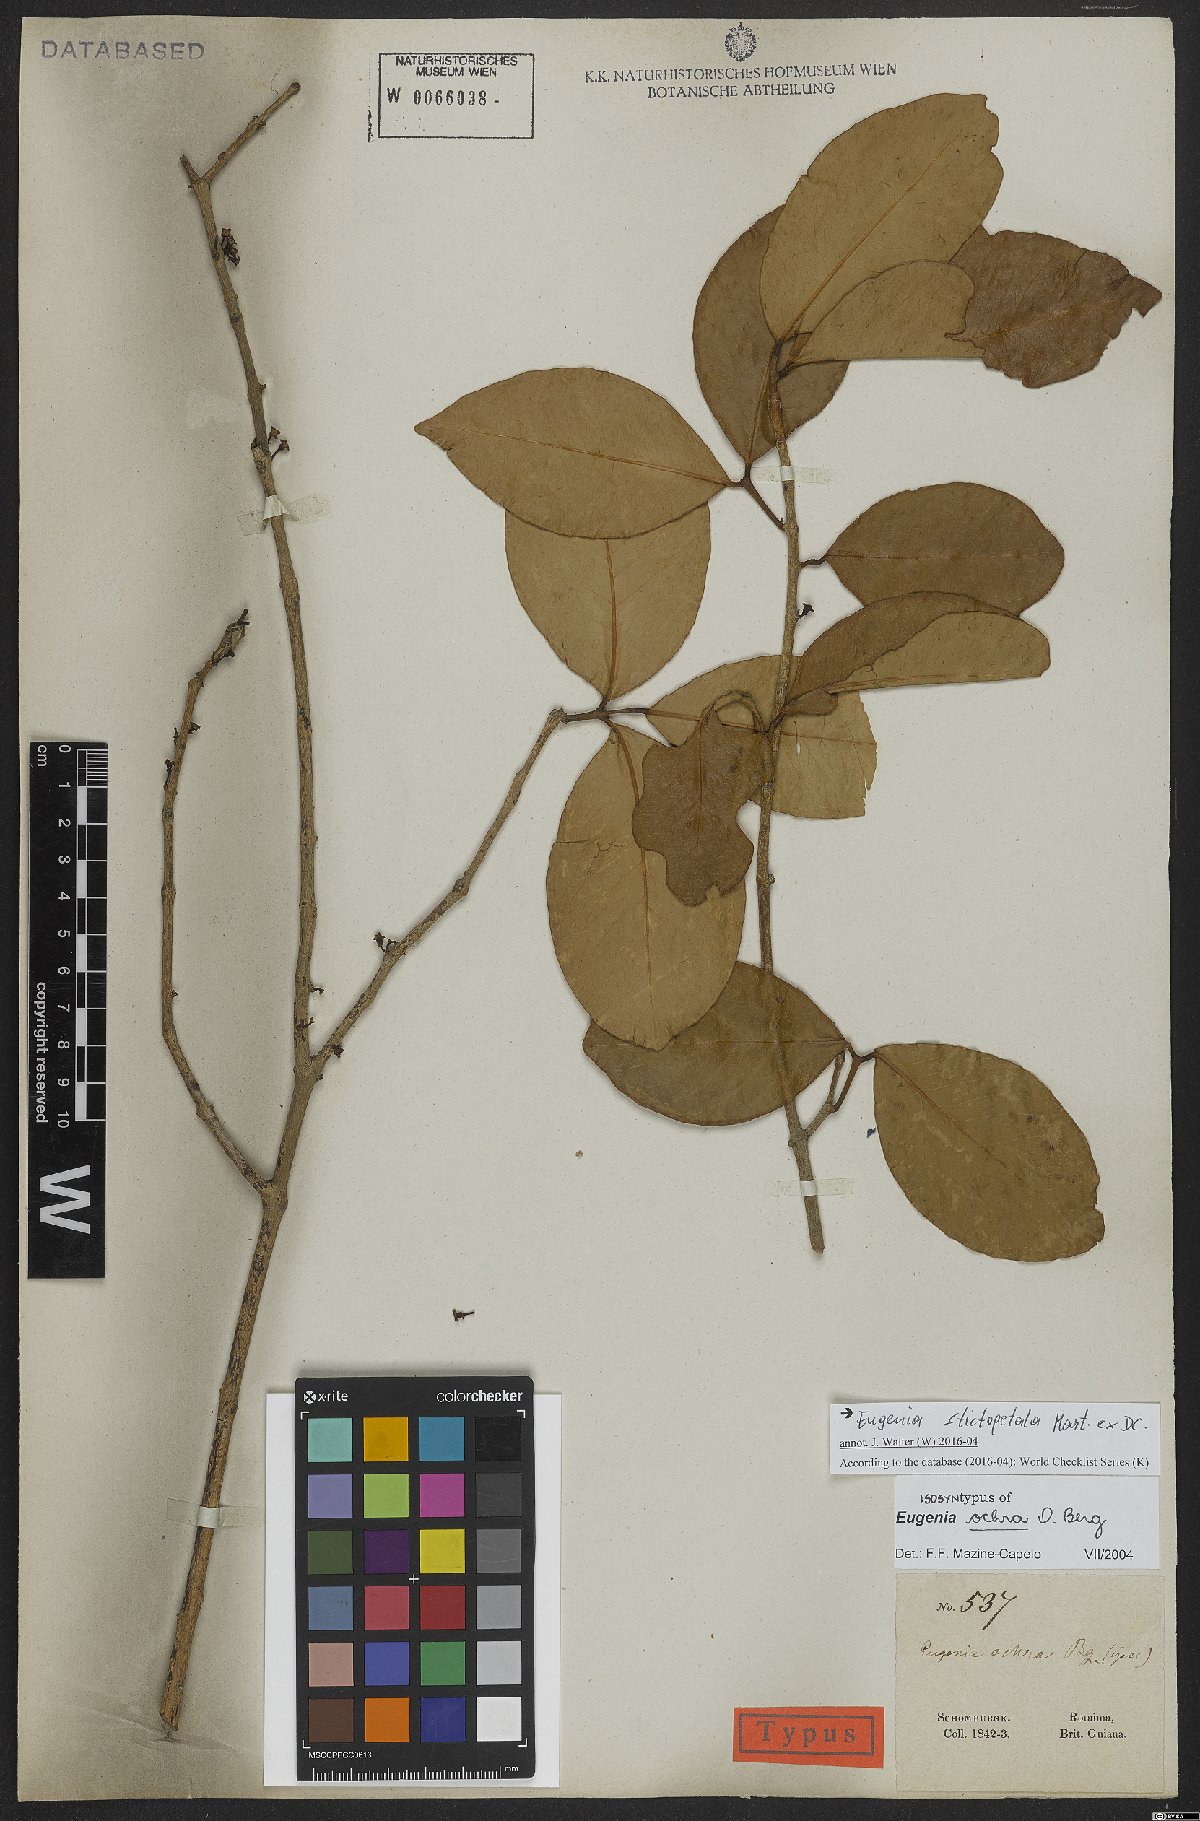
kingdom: Plantae
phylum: Tracheophyta
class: Magnoliopsida
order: Myrtales
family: Myrtaceae
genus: Eugenia
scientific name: Eugenia stictopetala
